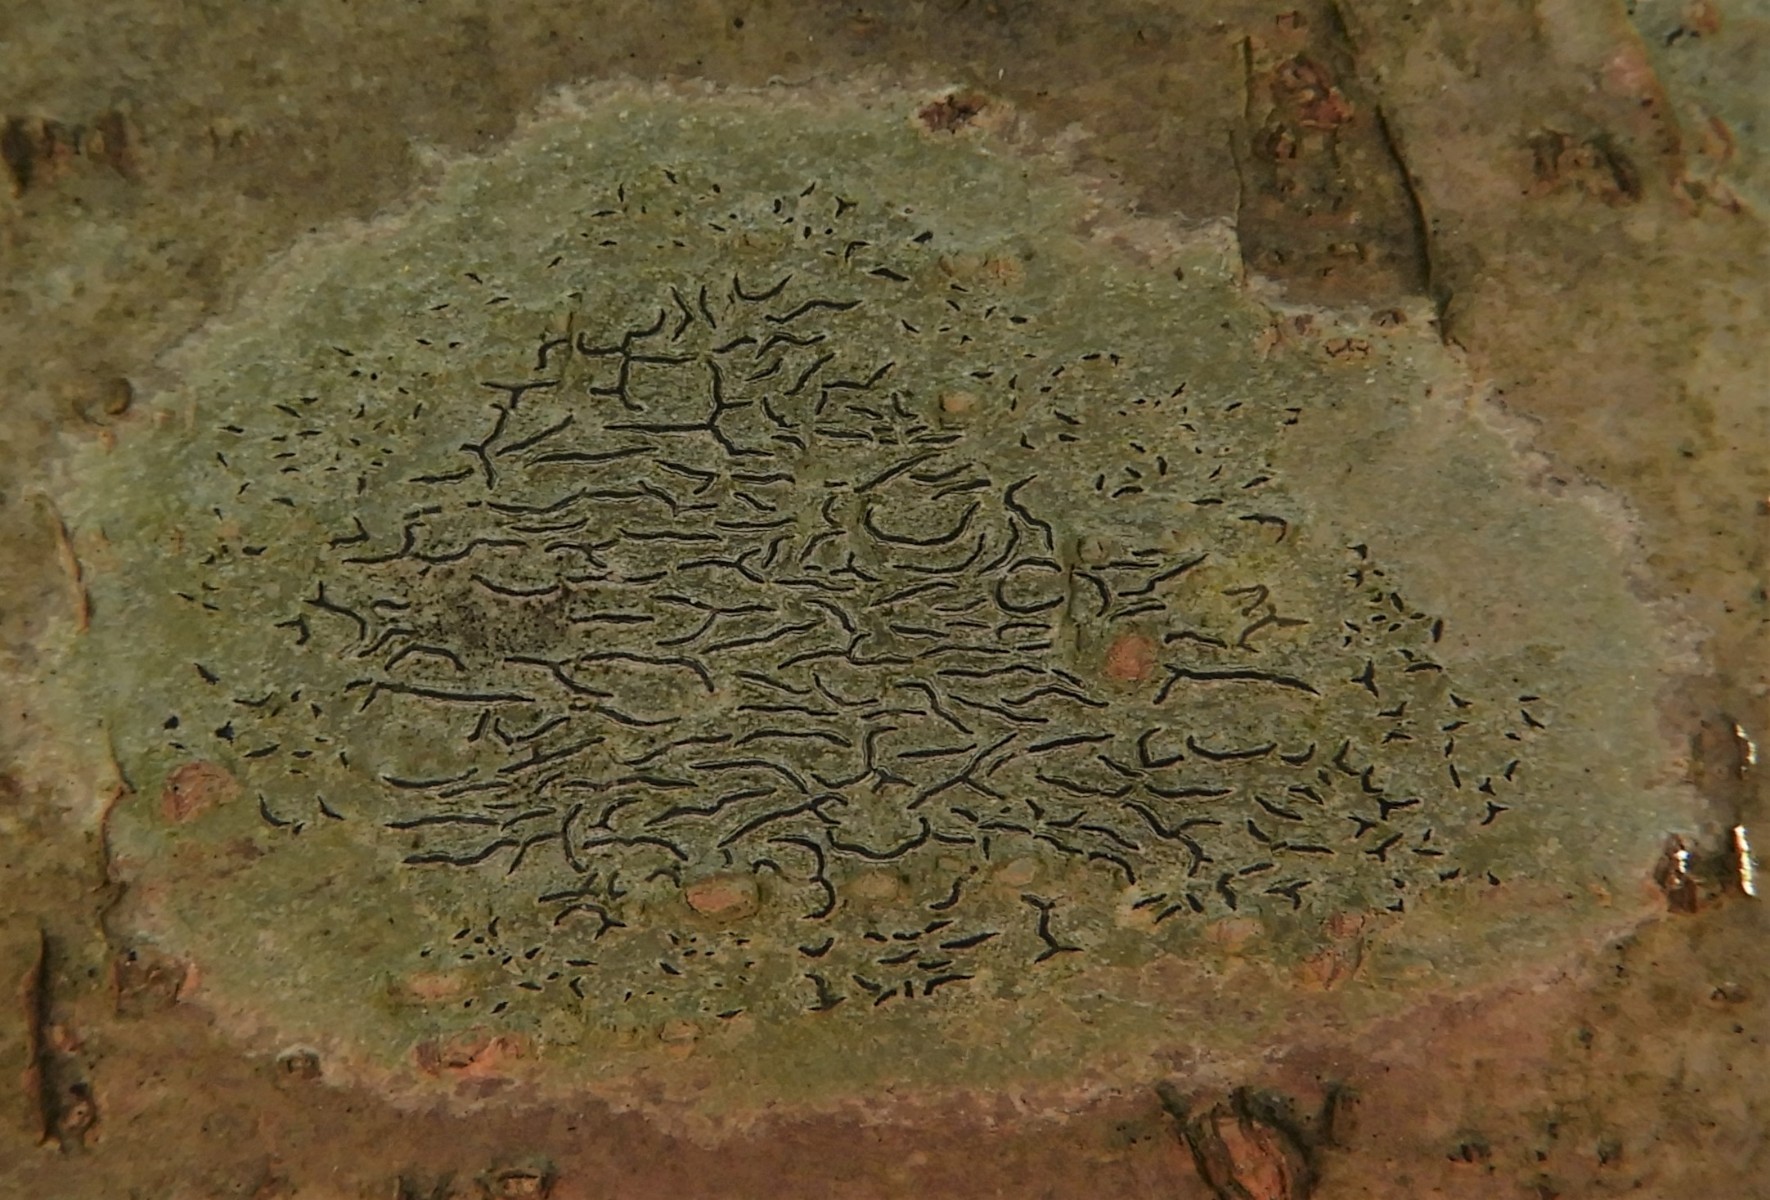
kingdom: Fungi
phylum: Ascomycota
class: Lecanoromycetes
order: Ostropales
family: Graphidaceae
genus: Graphis
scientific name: Graphis scripta
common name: almindelig skriftlav
